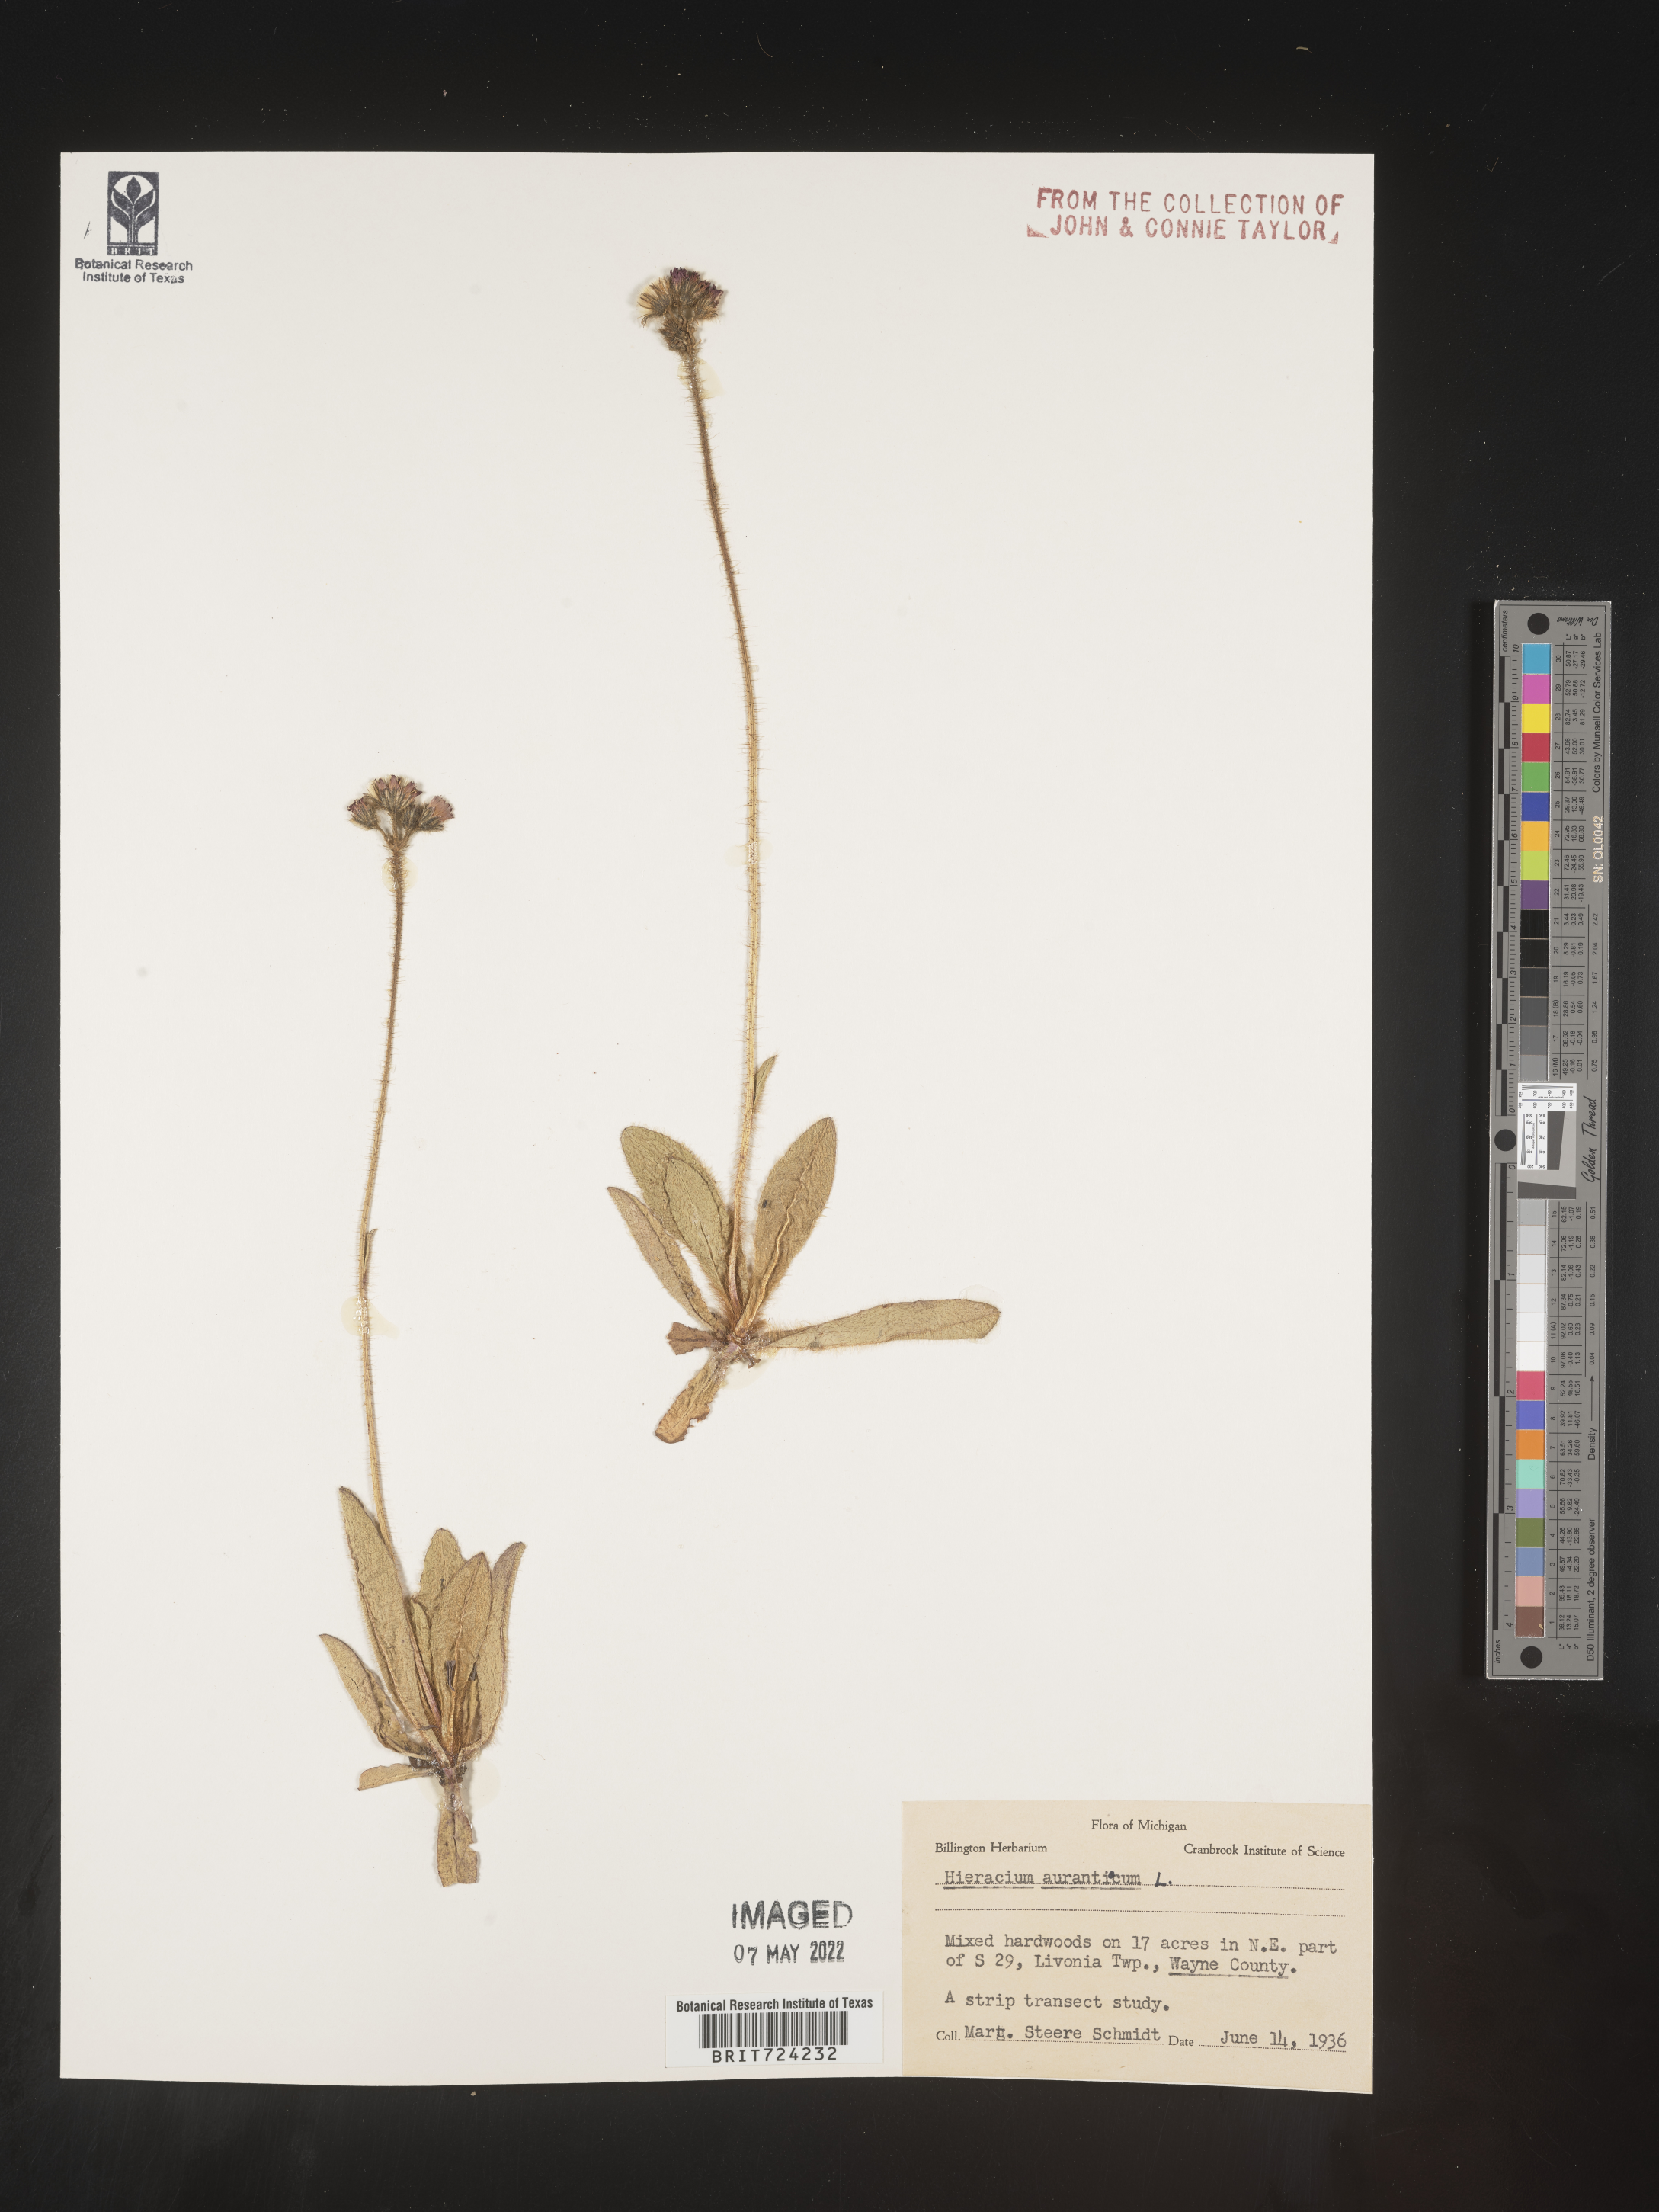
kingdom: Plantae
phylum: Tracheophyta
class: Magnoliopsida
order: Asterales
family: Asteraceae
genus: Pilosella
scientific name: Pilosella aurantiaca
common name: Fox-and-cubs
